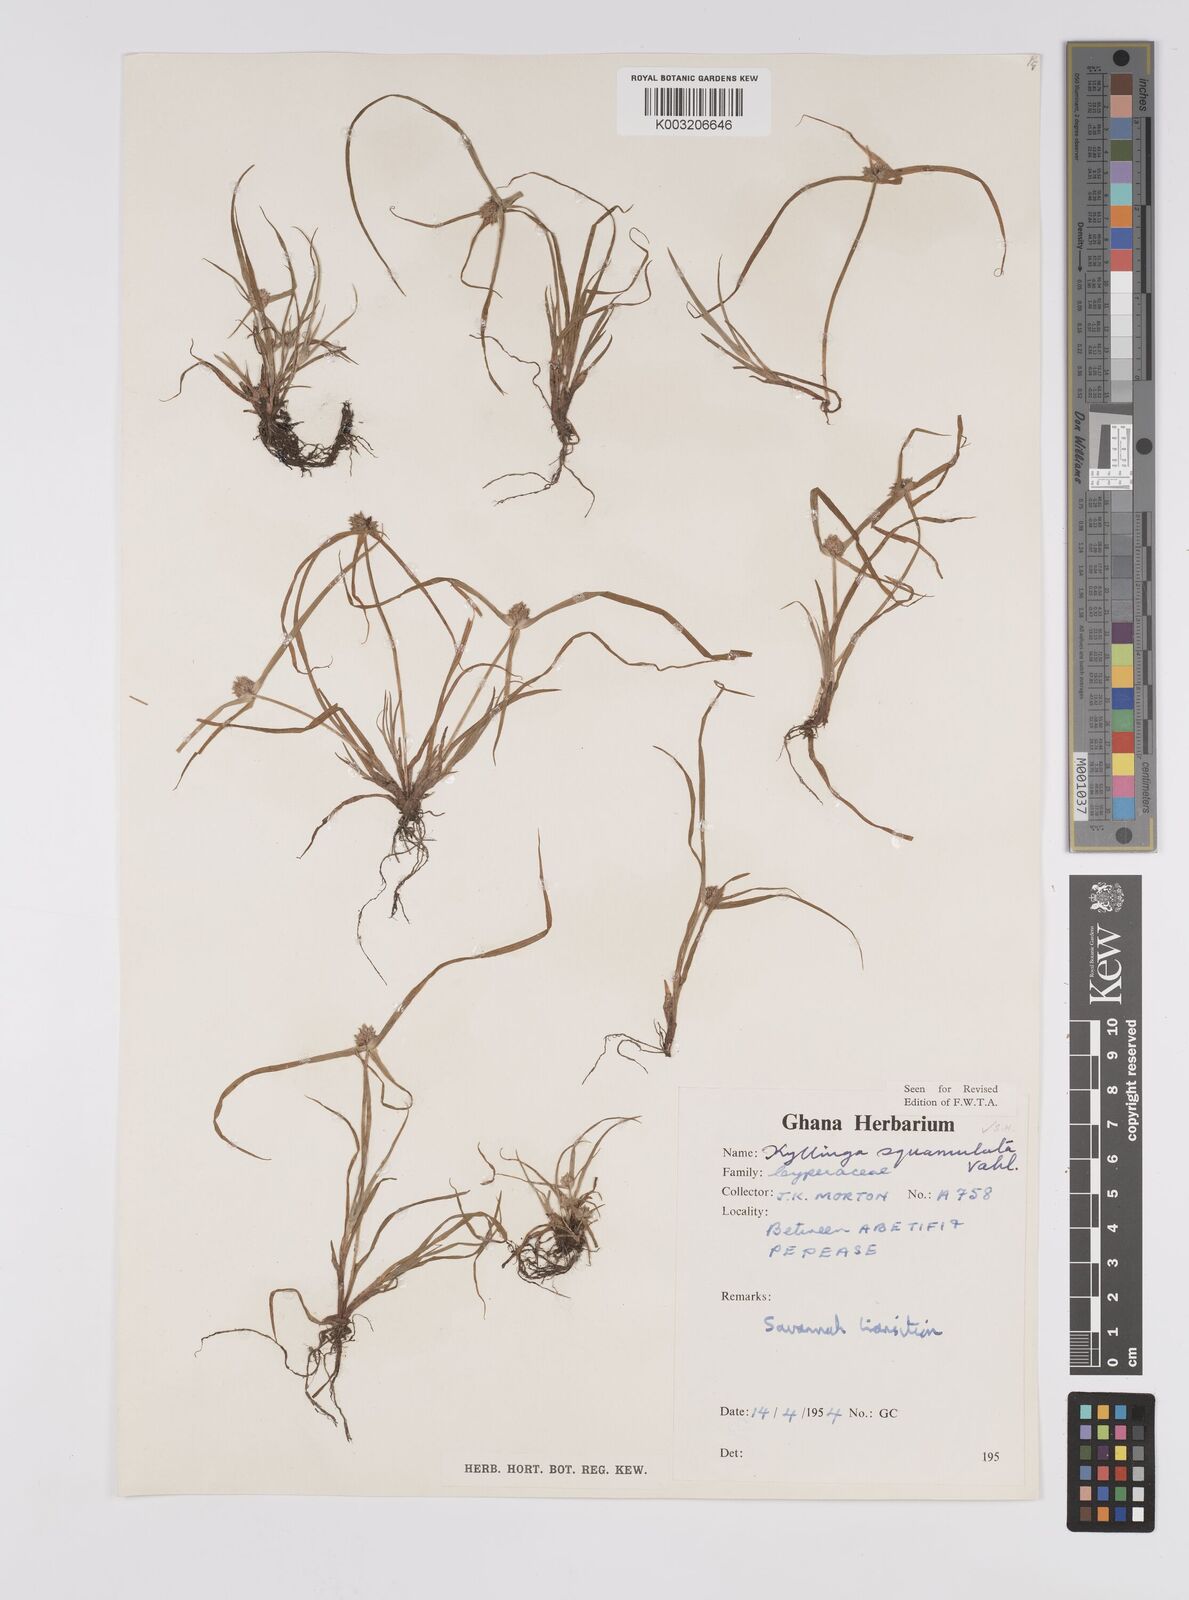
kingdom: Plantae
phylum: Tracheophyta
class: Liliopsida
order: Poales
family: Cyperaceae
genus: Cyperus
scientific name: Cyperus distans
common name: Slender cyperus
